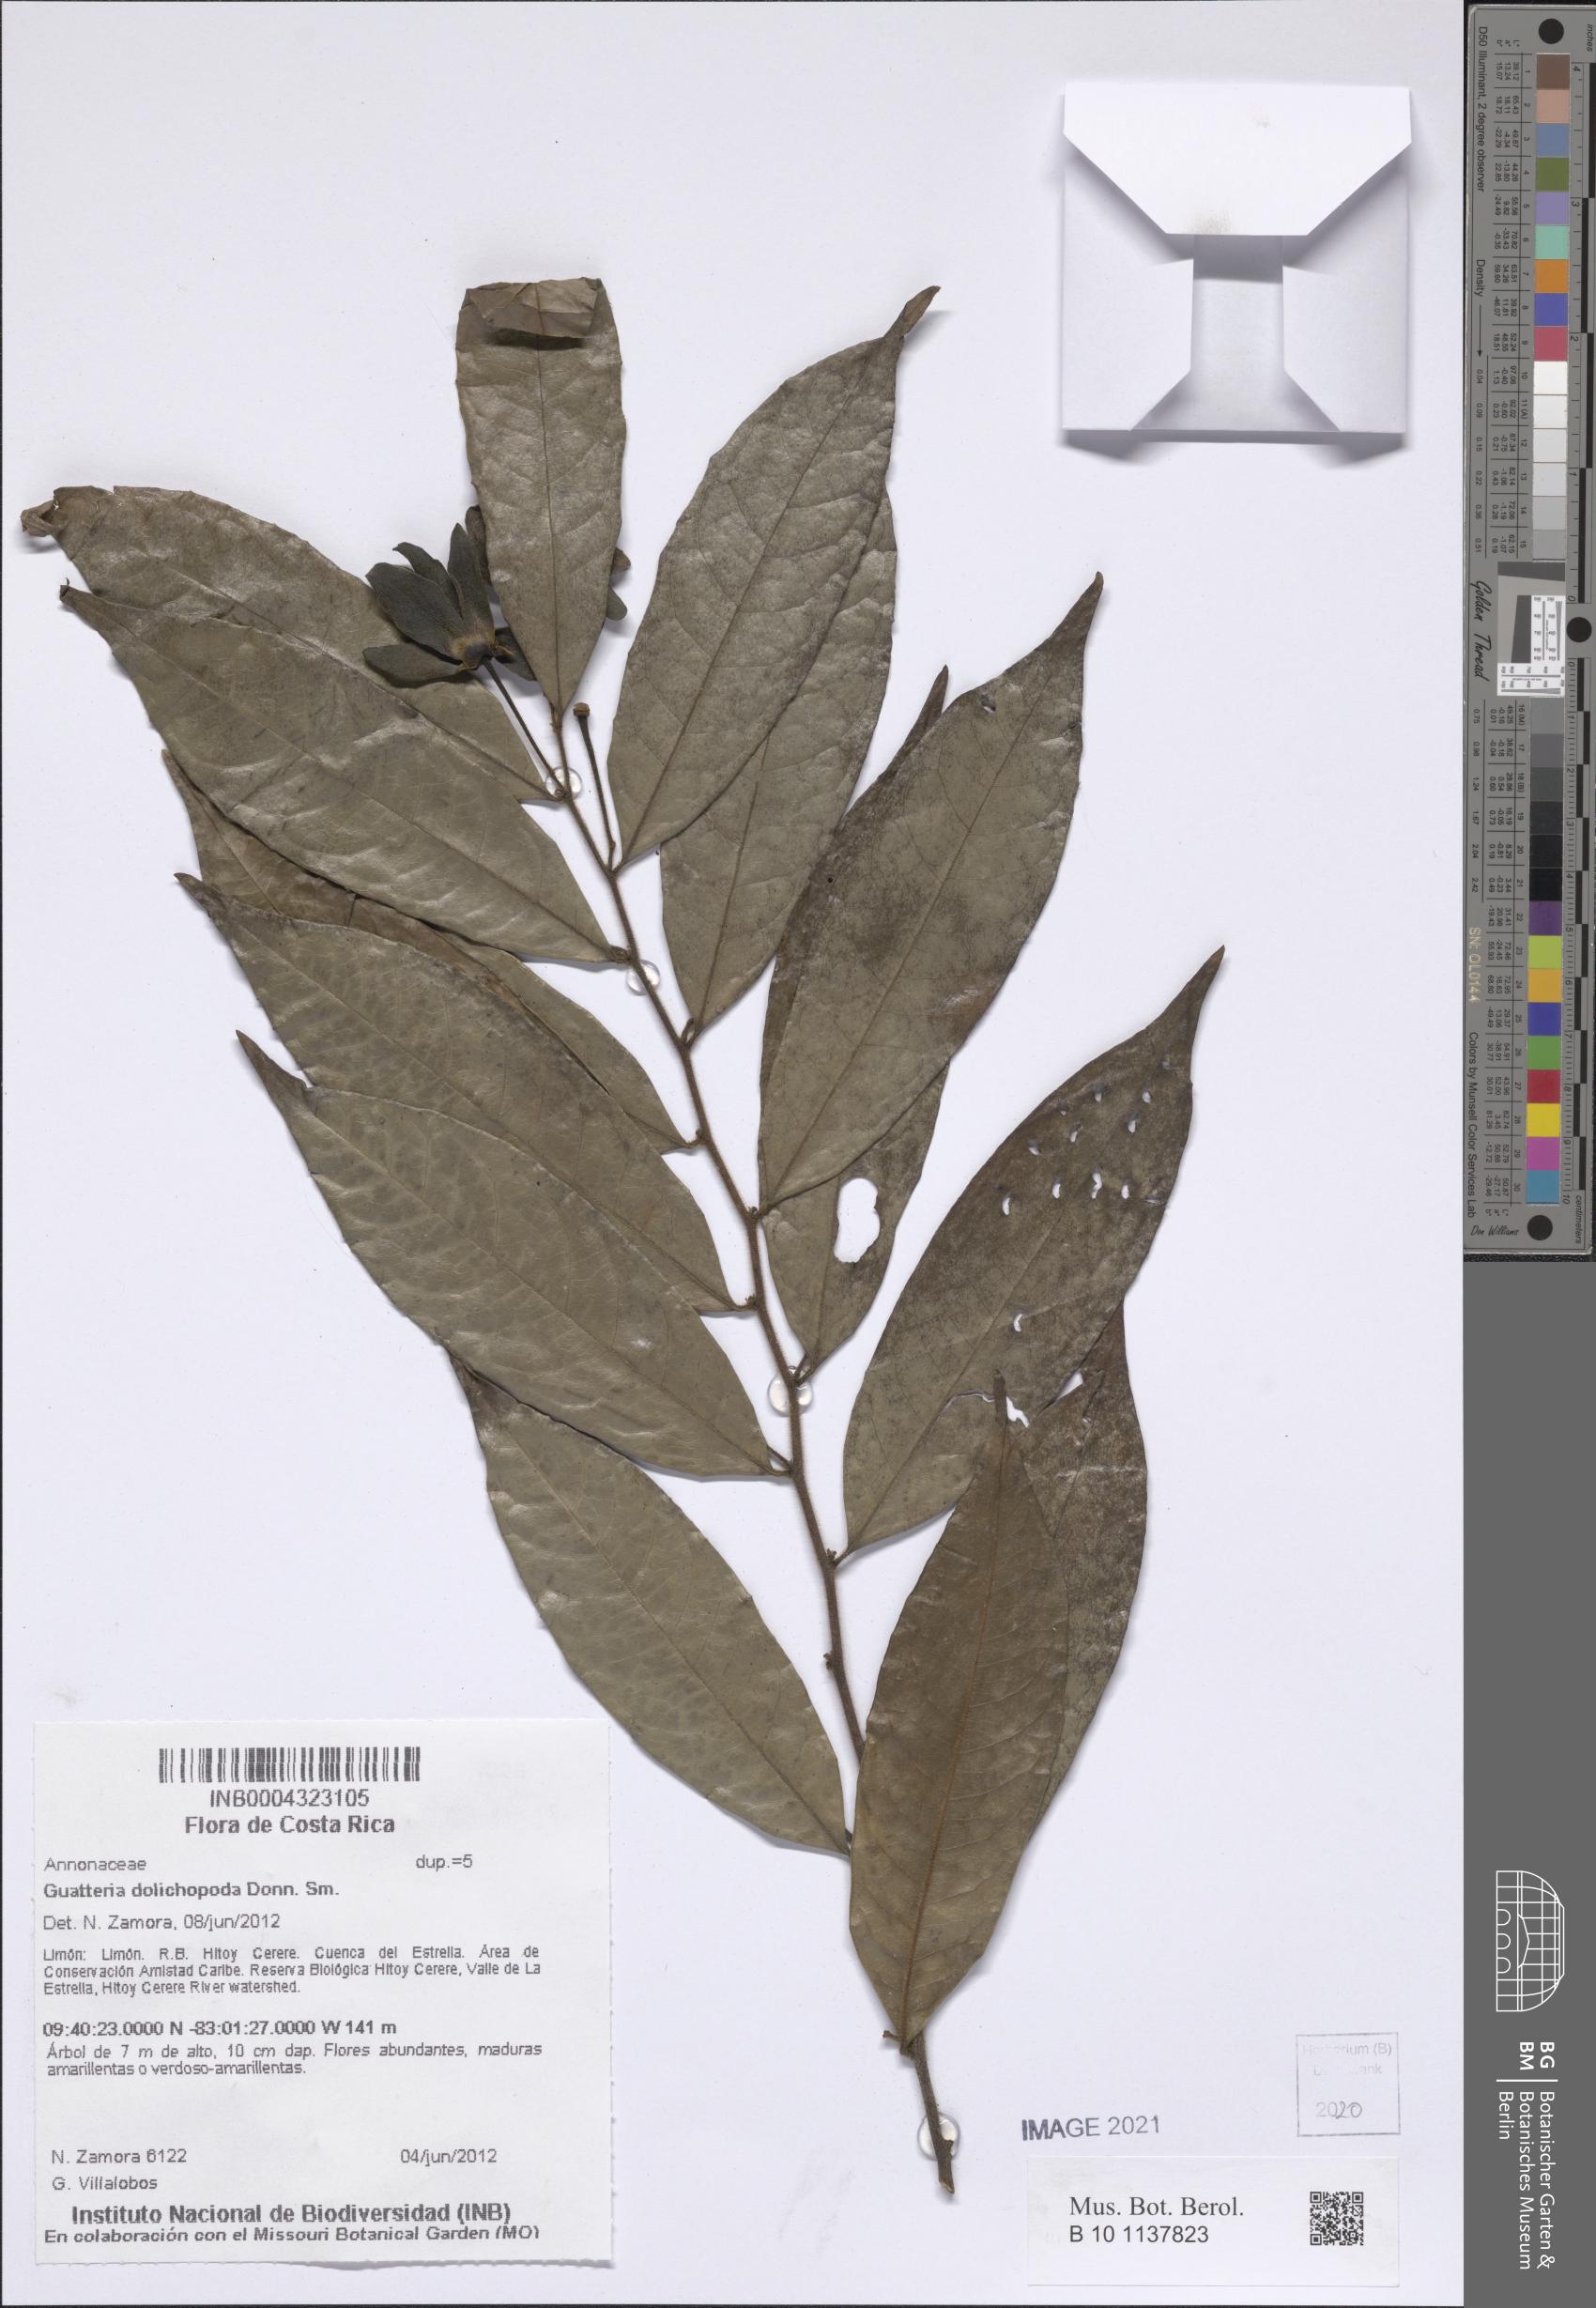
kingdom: Plantae
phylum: Tracheophyta
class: Magnoliopsida
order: Magnoliales
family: Annonaceae
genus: Guatteria
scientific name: Guatteria dolichopoda
